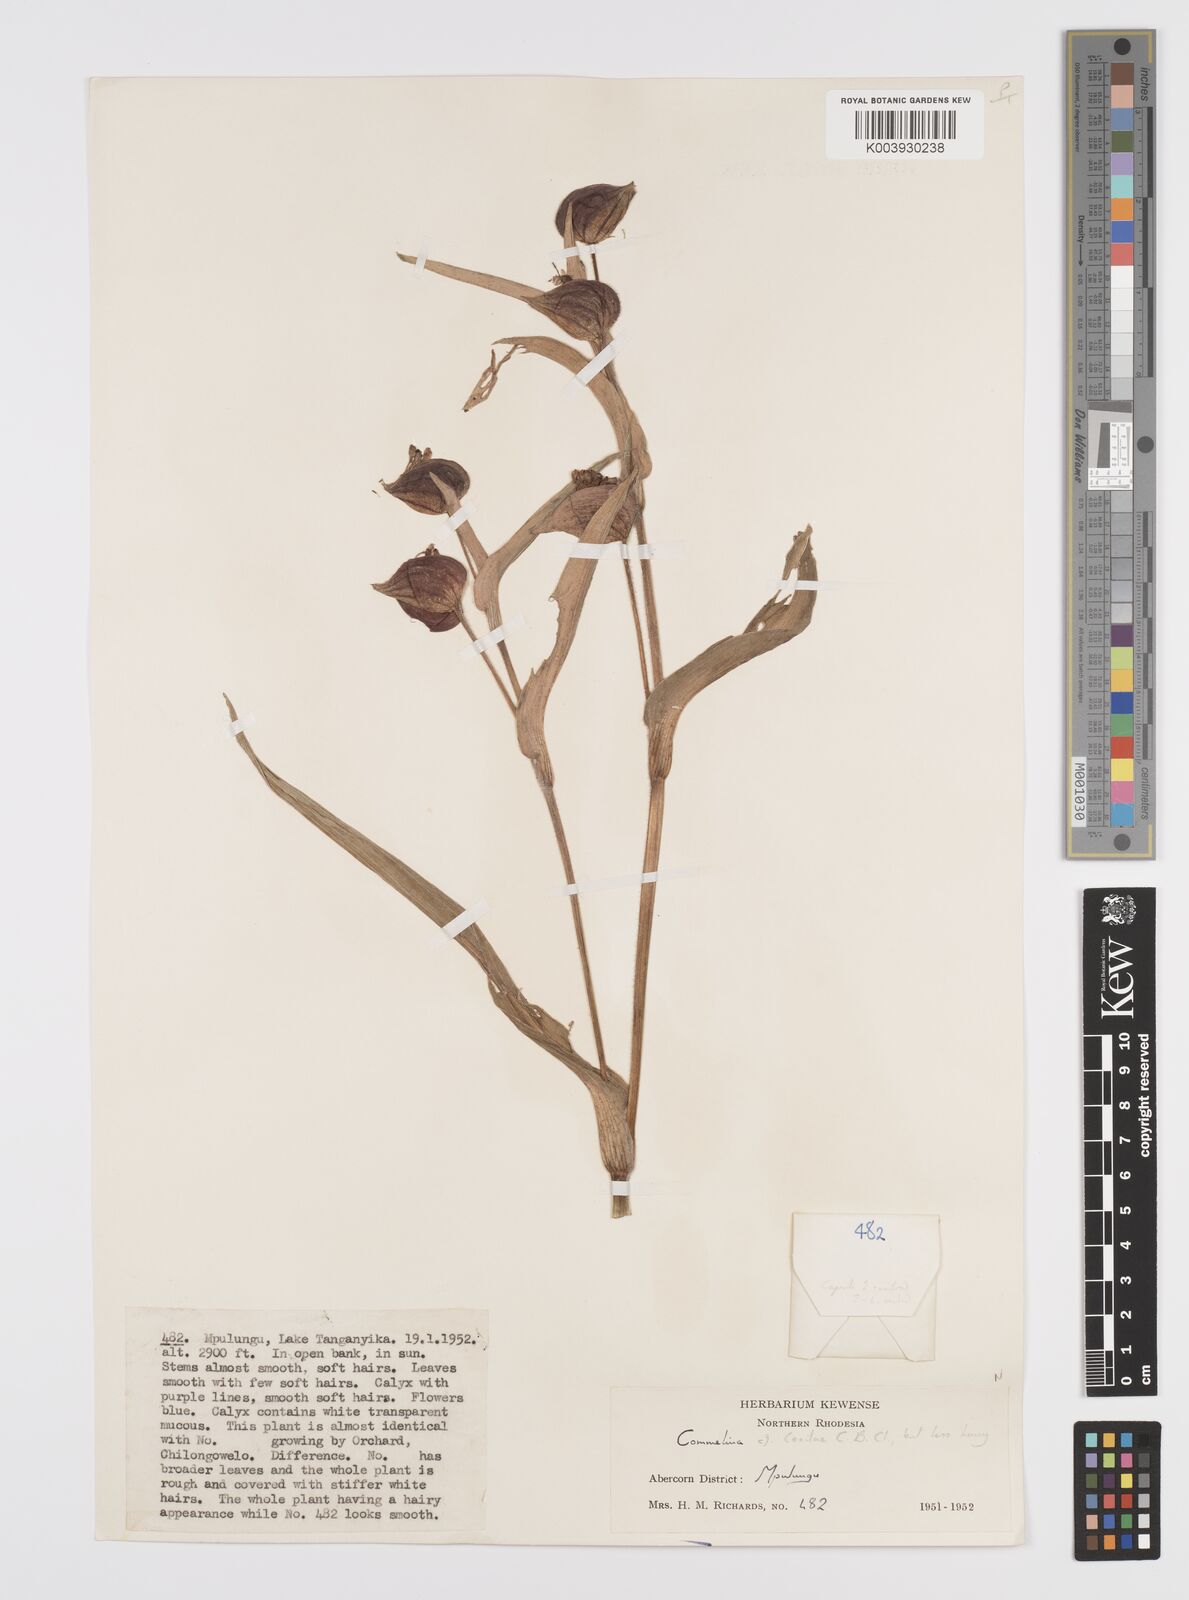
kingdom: Plantae
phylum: Tracheophyta
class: Liliopsida
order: Commelinales
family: Commelinaceae
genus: Commelina
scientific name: Commelina schweinfurthii
